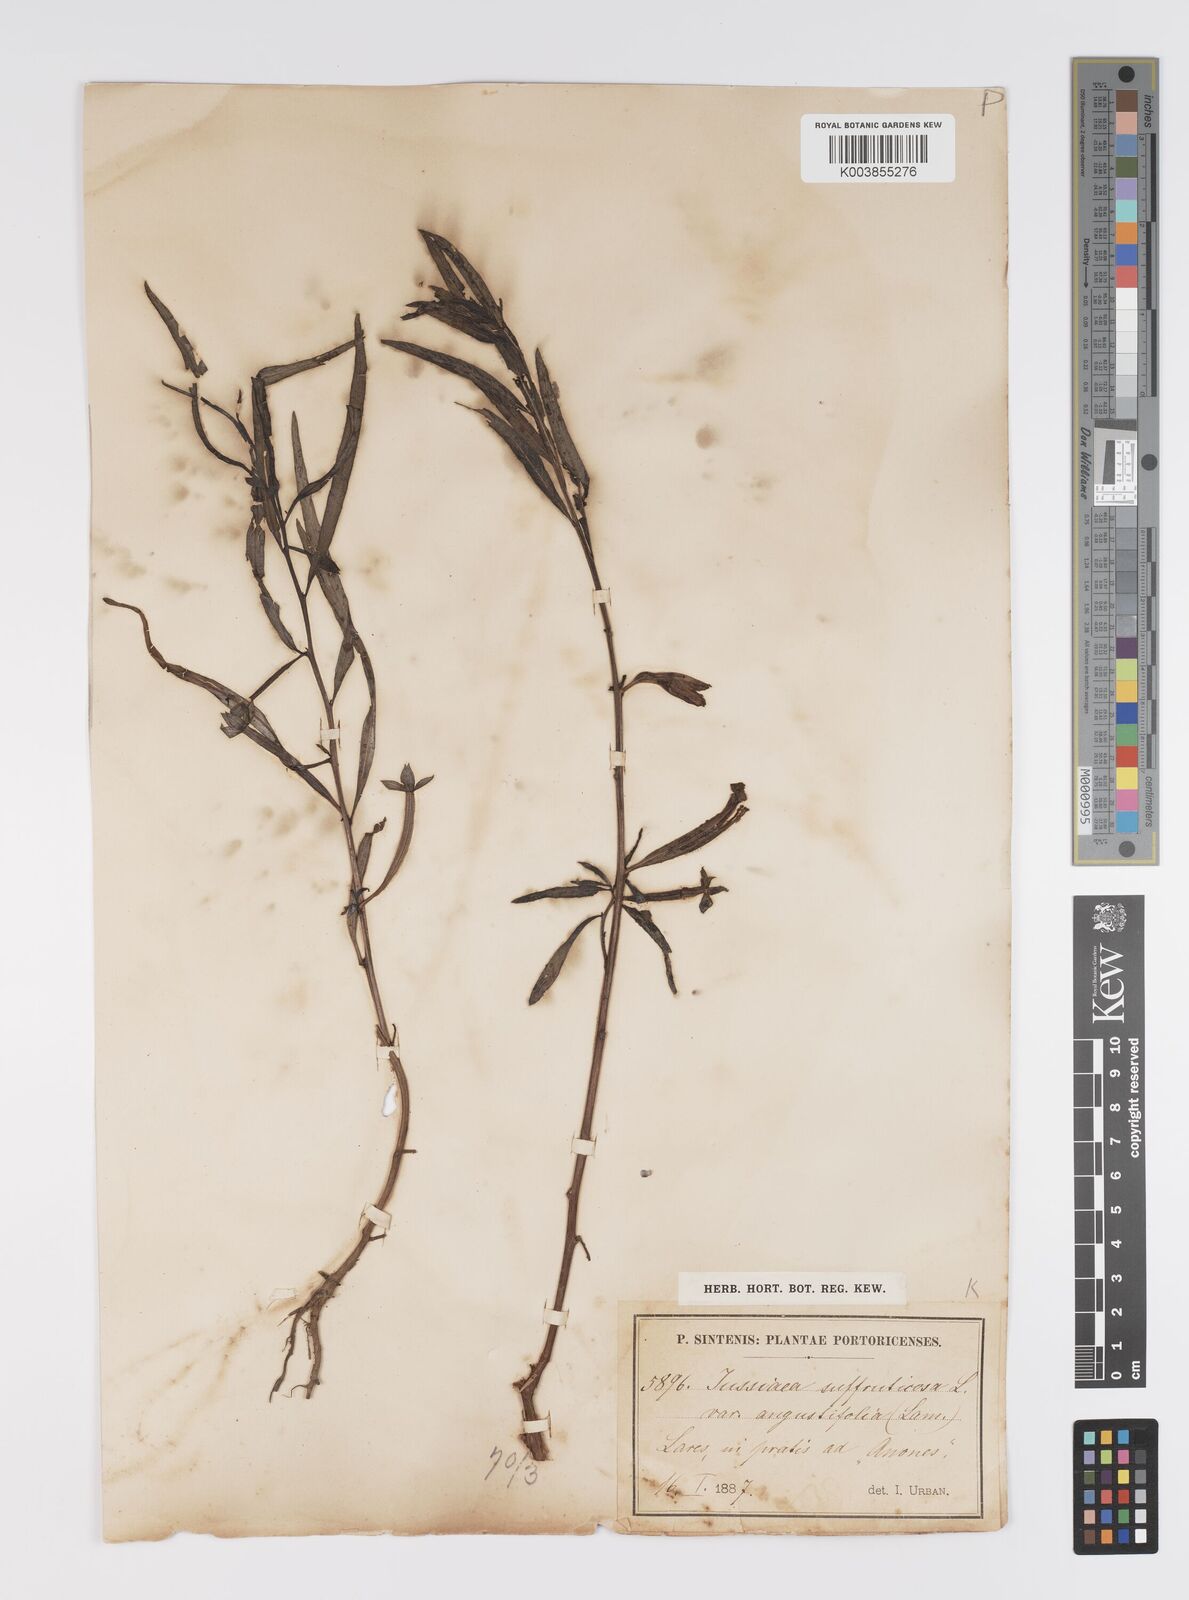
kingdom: Plantae
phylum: Tracheophyta
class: Magnoliopsida
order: Myrtales
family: Onagraceae
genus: Ludwigia
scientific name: Ludwigia octovalvis
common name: Water-primrose
